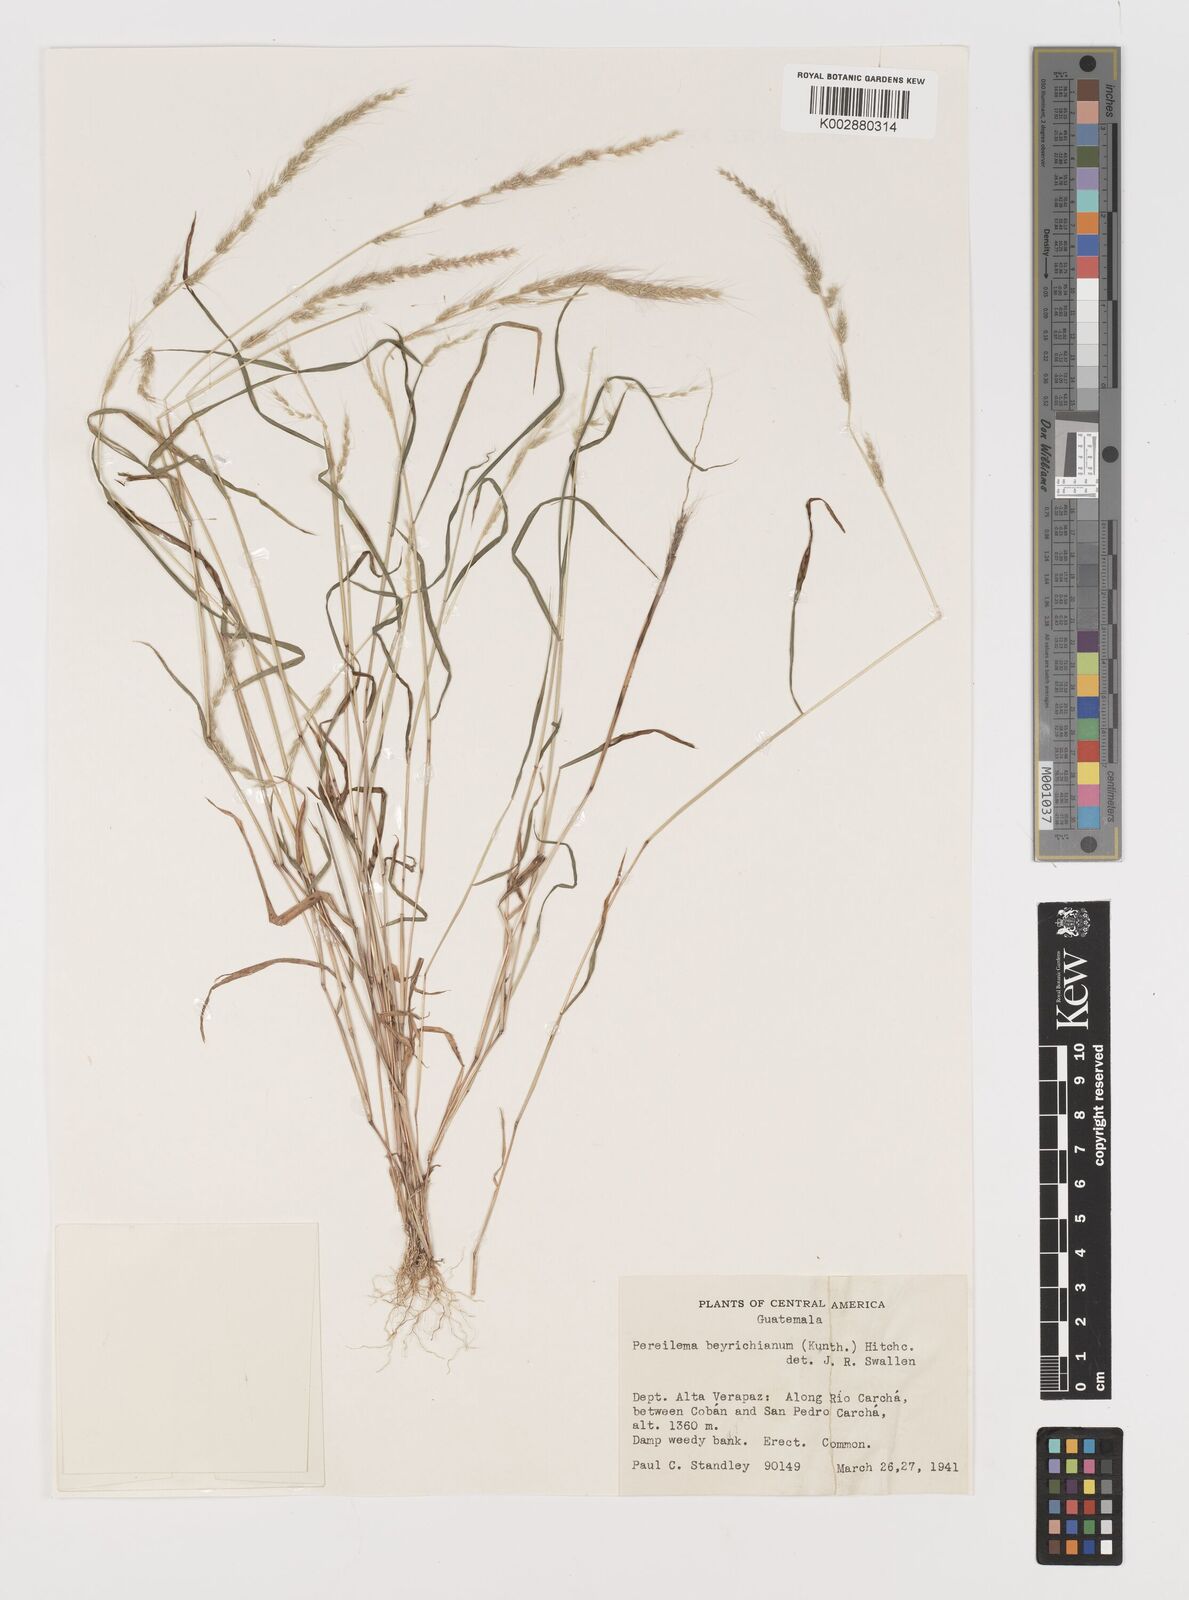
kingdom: Plantae
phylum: Tracheophyta
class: Liliopsida
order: Poales
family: Poaceae
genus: Muhlenbergia
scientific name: Muhlenbergia pereilema
